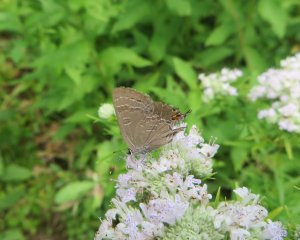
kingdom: Animalia
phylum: Arthropoda
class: Insecta
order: Lepidoptera
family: Lycaenidae
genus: Satyrium
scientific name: Satyrium calanus
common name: Banded Hairstreak
